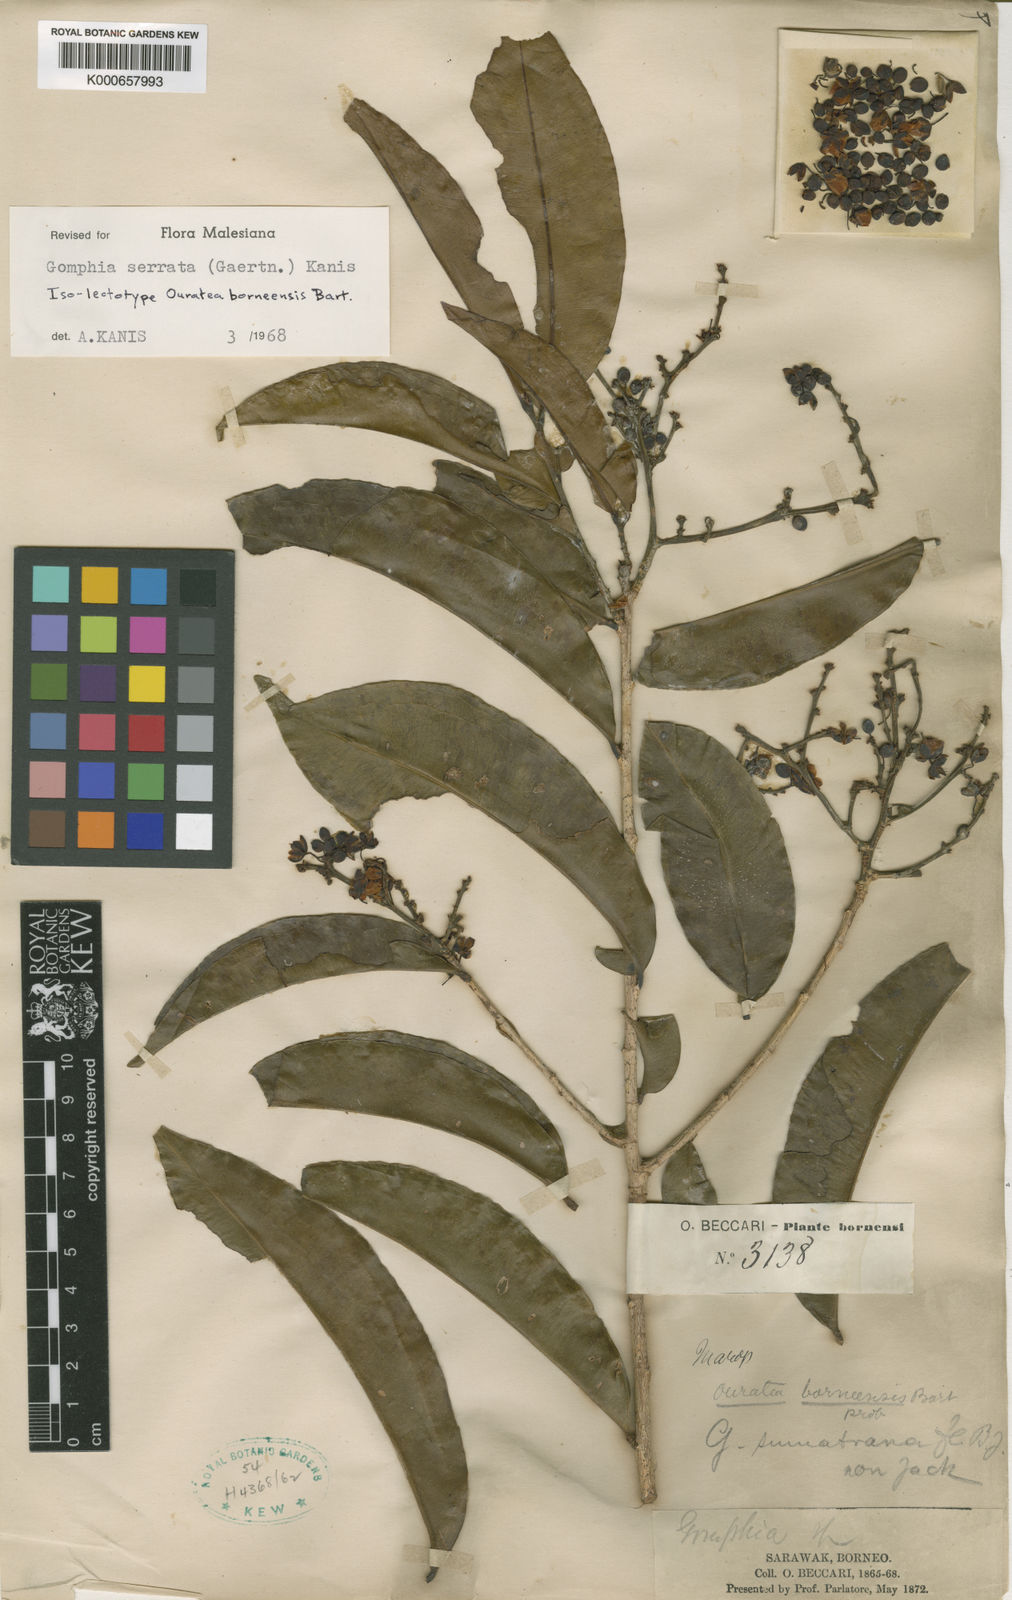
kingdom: Plantae
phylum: Tracheophyta
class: Magnoliopsida
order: Malpighiales
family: Ochnaceae
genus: Gomphia
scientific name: Gomphia serrata
